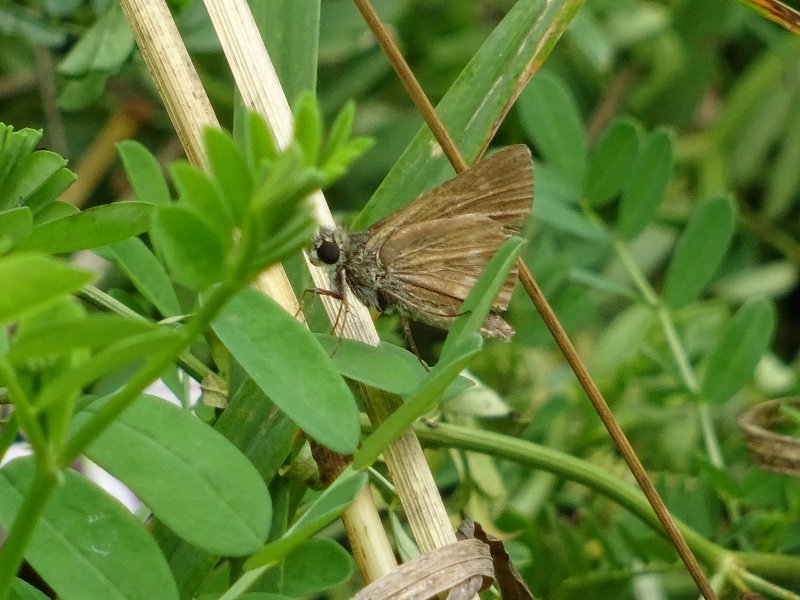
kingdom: Animalia
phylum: Arthropoda
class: Insecta
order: Lepidoptera
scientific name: Lepidoptera
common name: Butterflies
